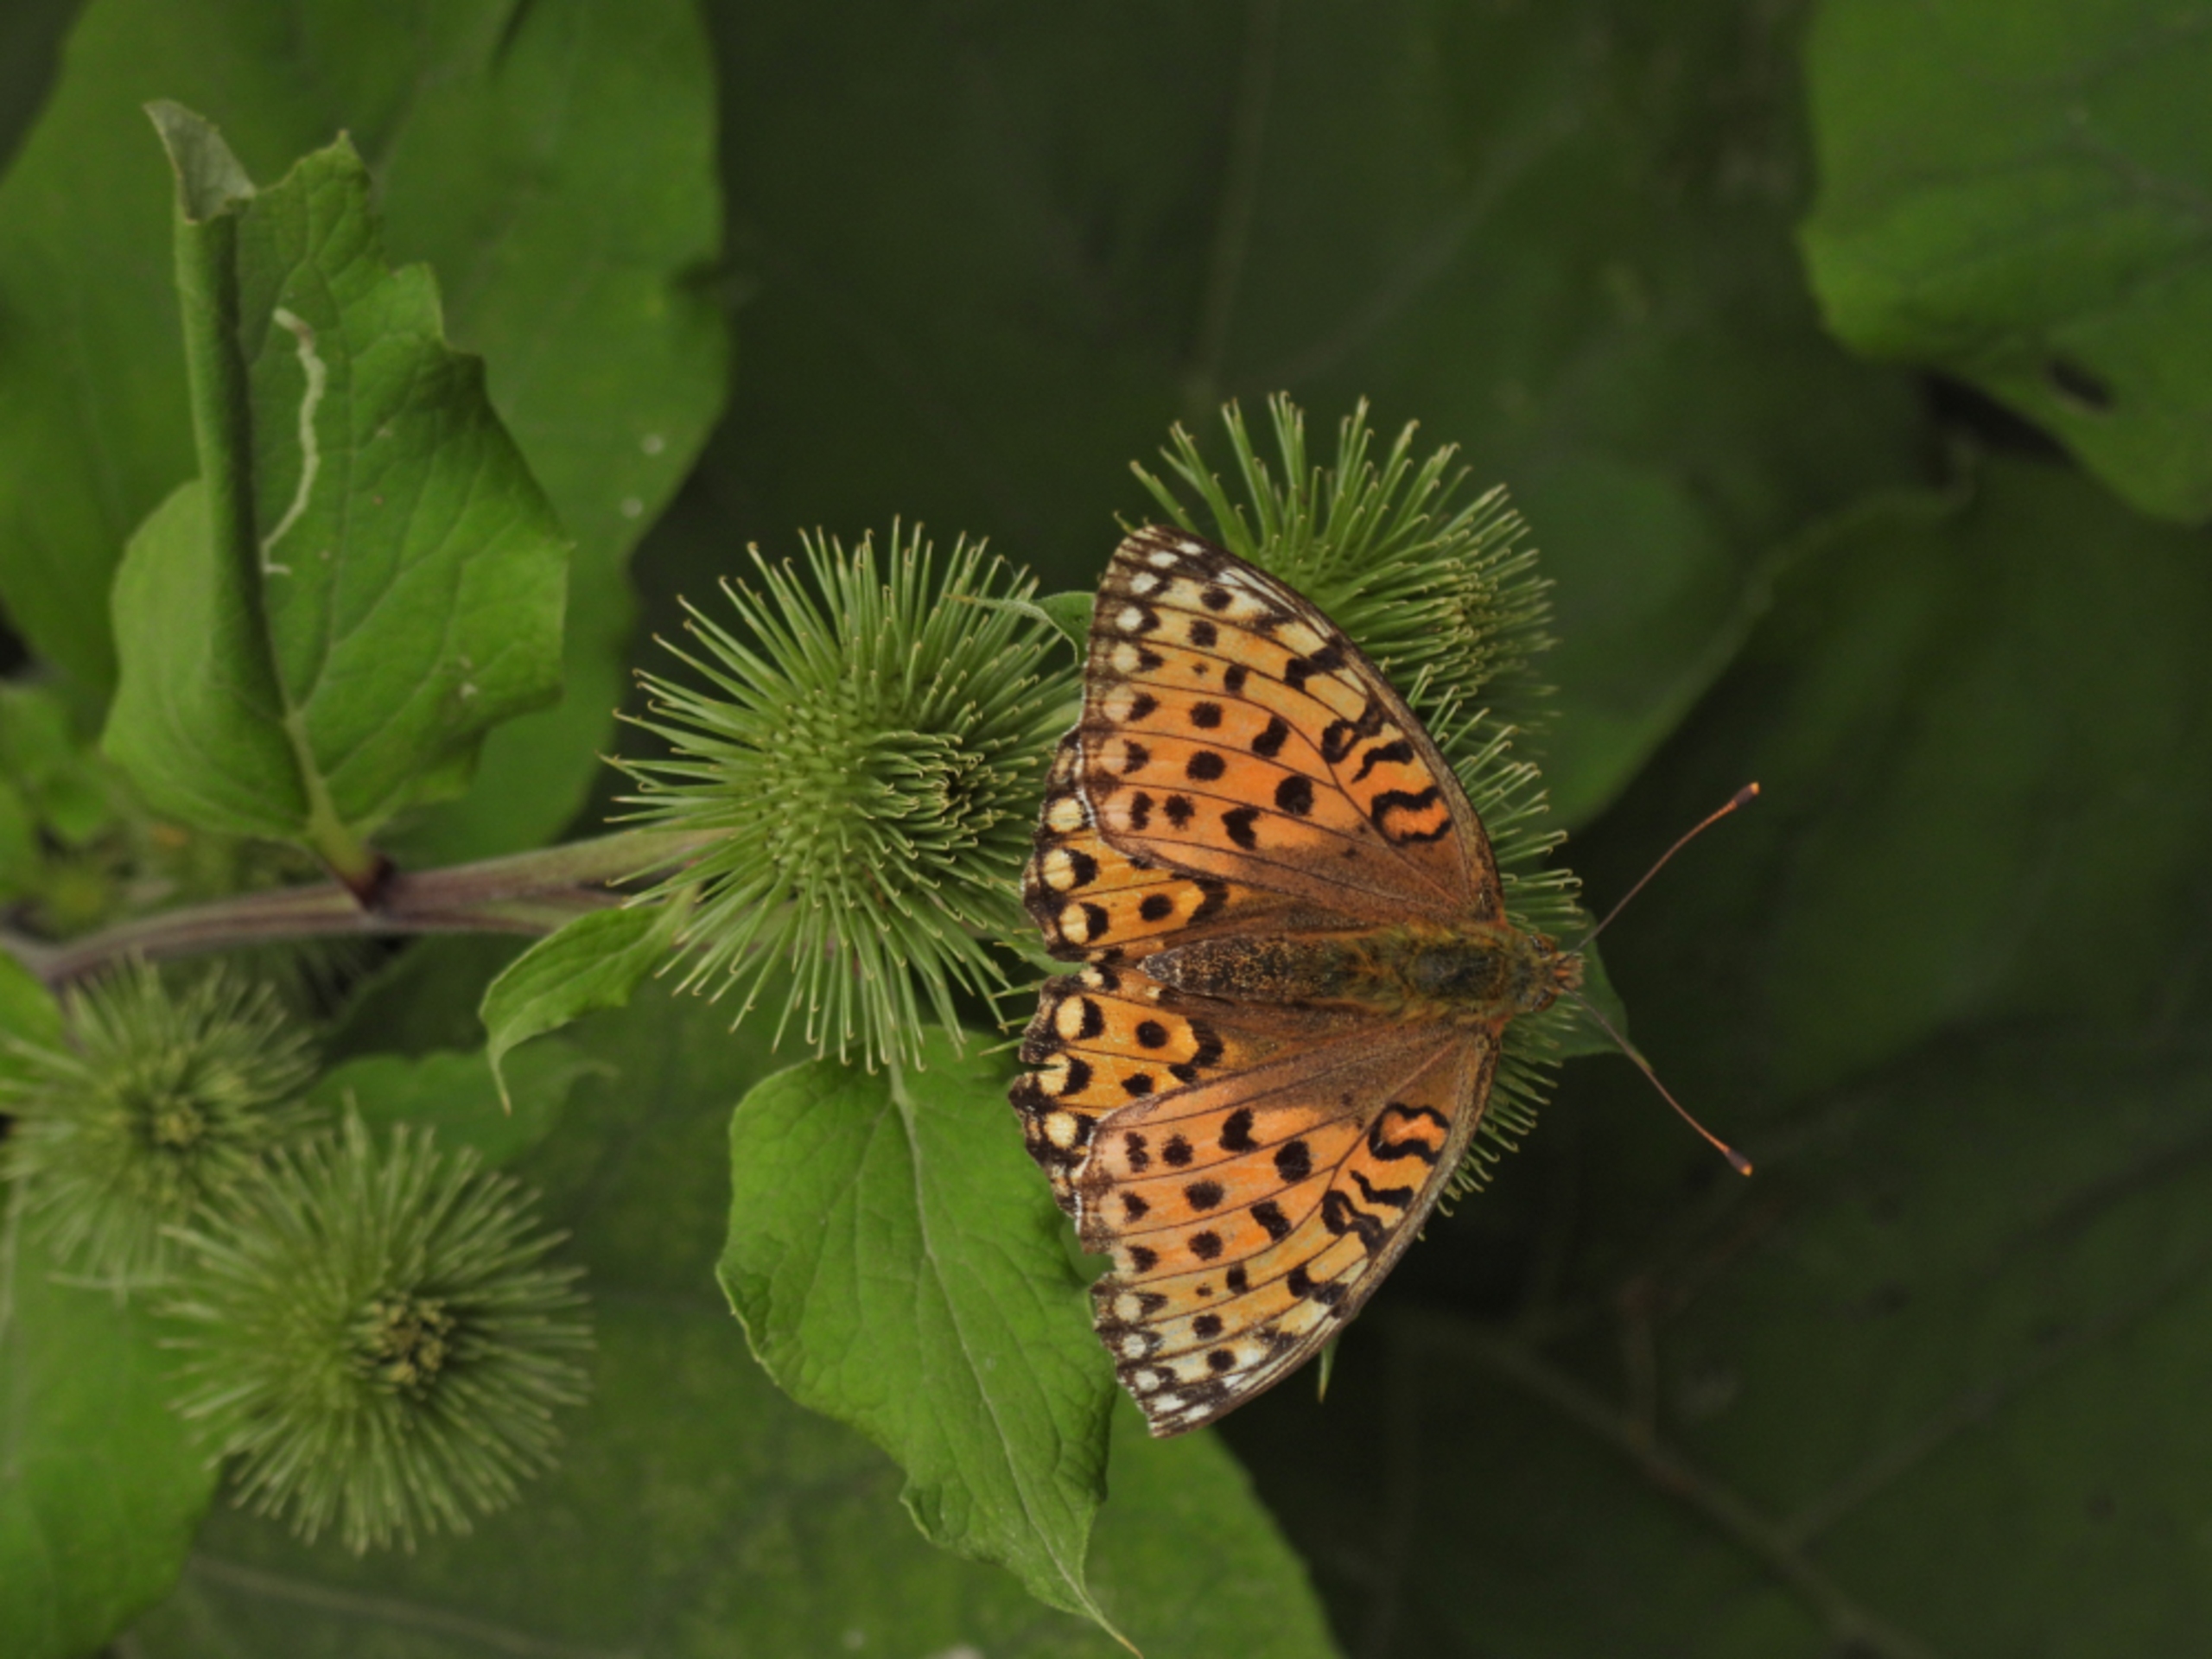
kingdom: Animalia
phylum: Arthropoda
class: Insecta
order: Lepidoptera
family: Nymphalidae
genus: Speyeria
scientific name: Speyeria aglaja
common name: Markperlemorsommerfugl
